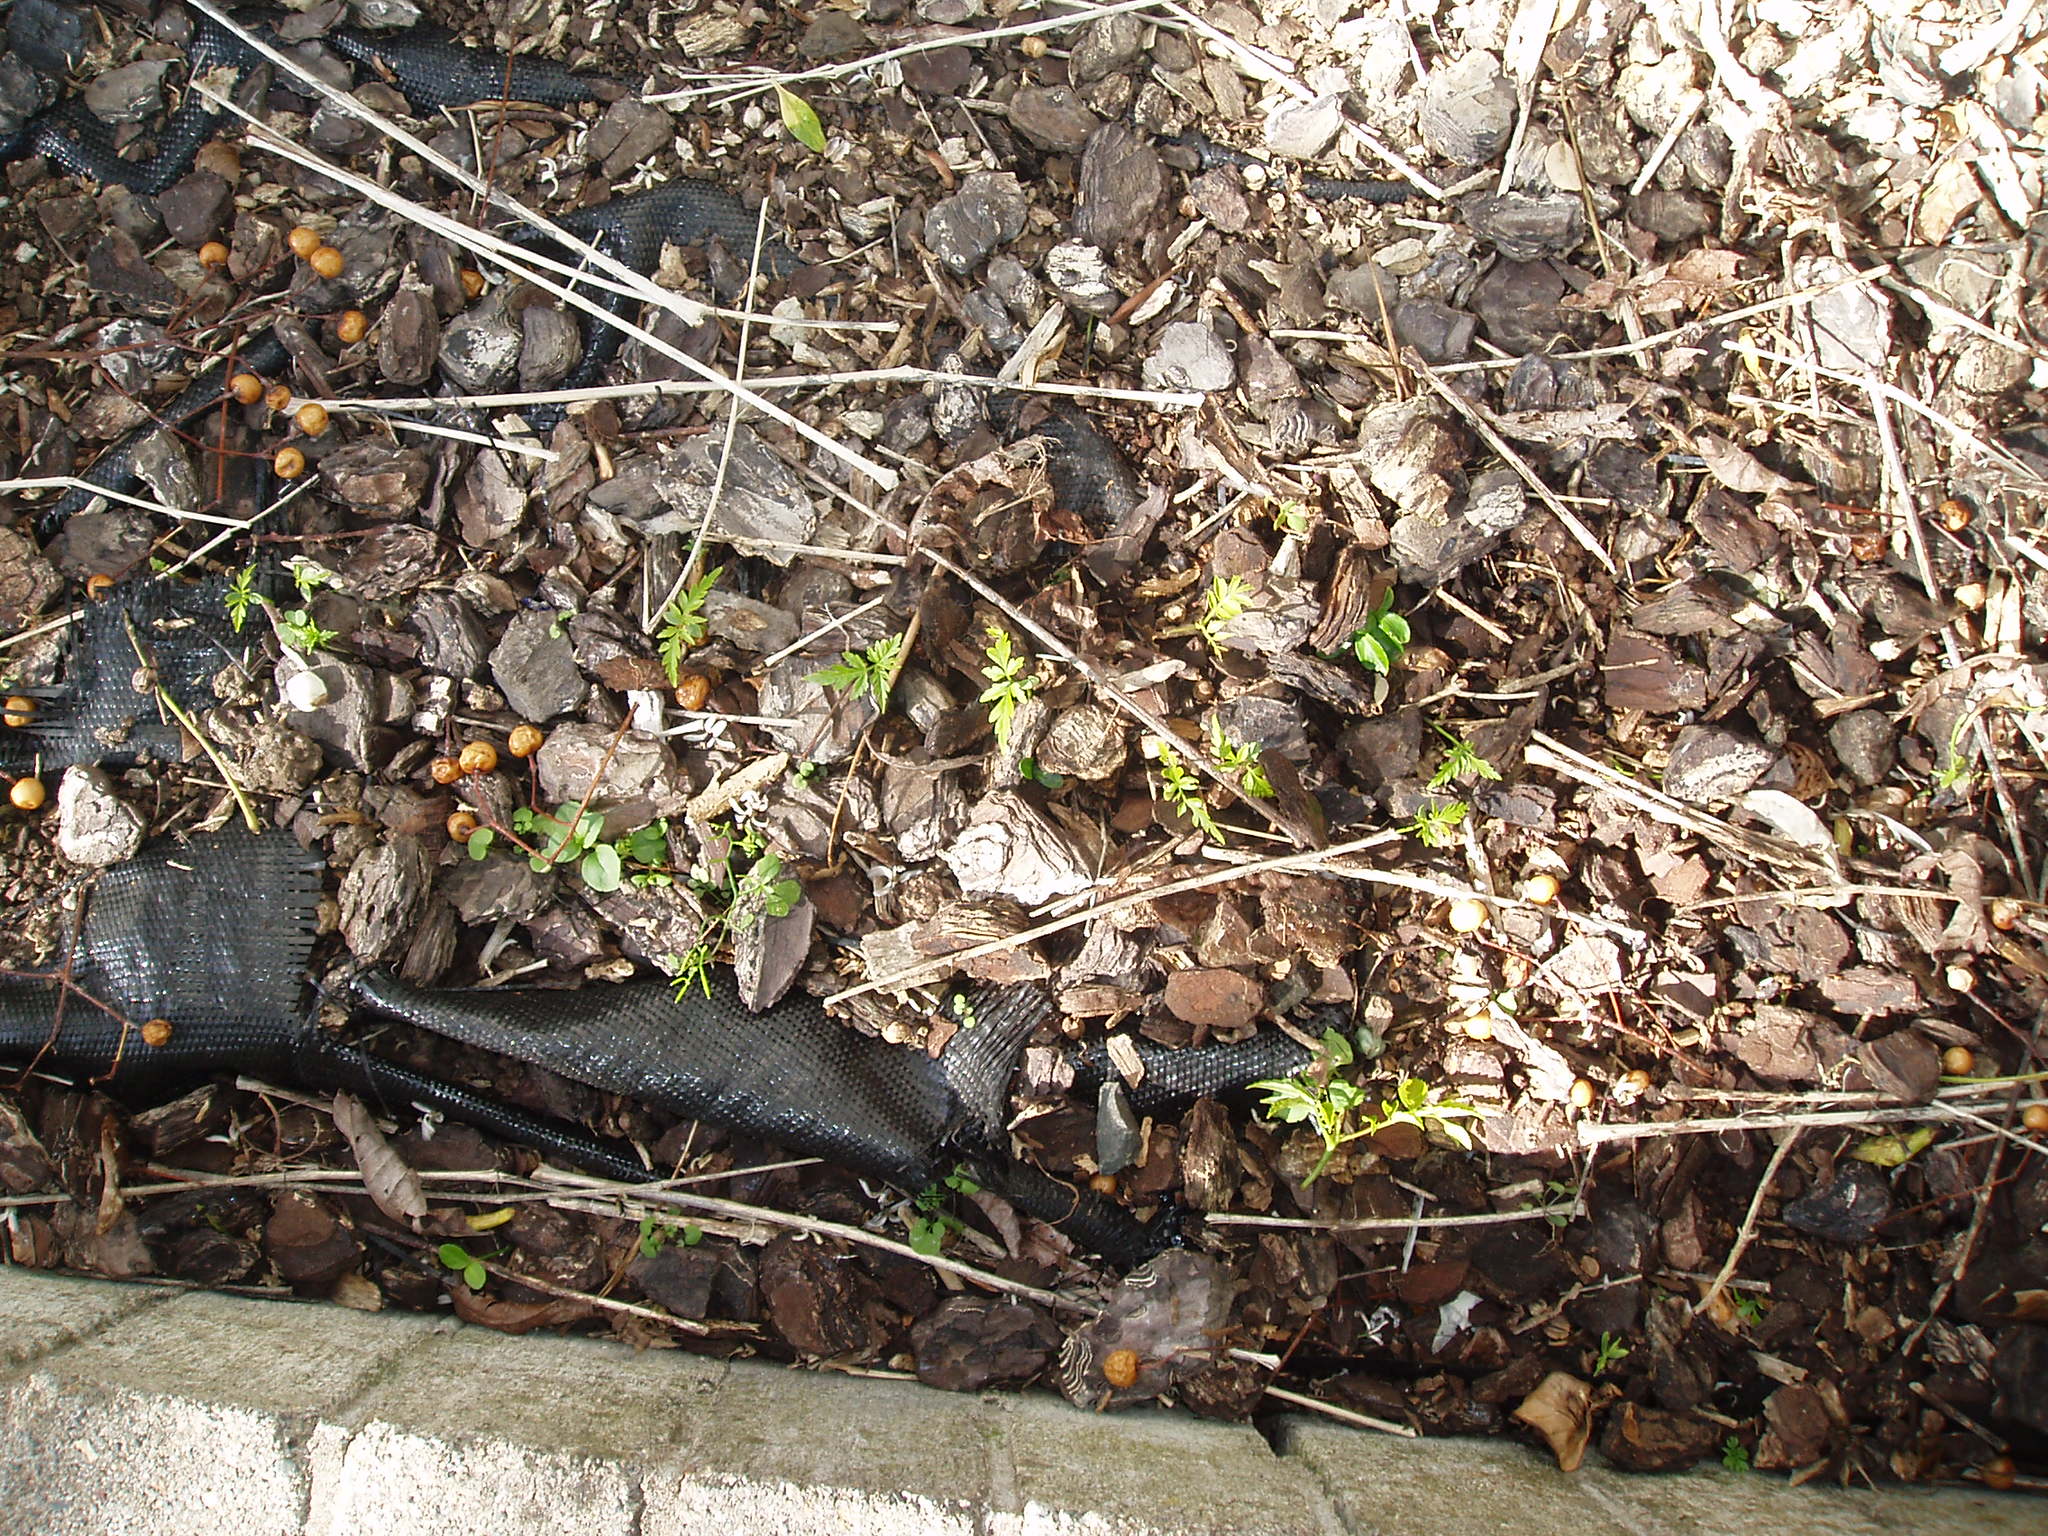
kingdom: Plantae
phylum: Tracheophyta
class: Magnoliopsida
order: Sapindales
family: Meliaceae
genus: Melia
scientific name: Melia azedarach
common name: Chinaberrytree
